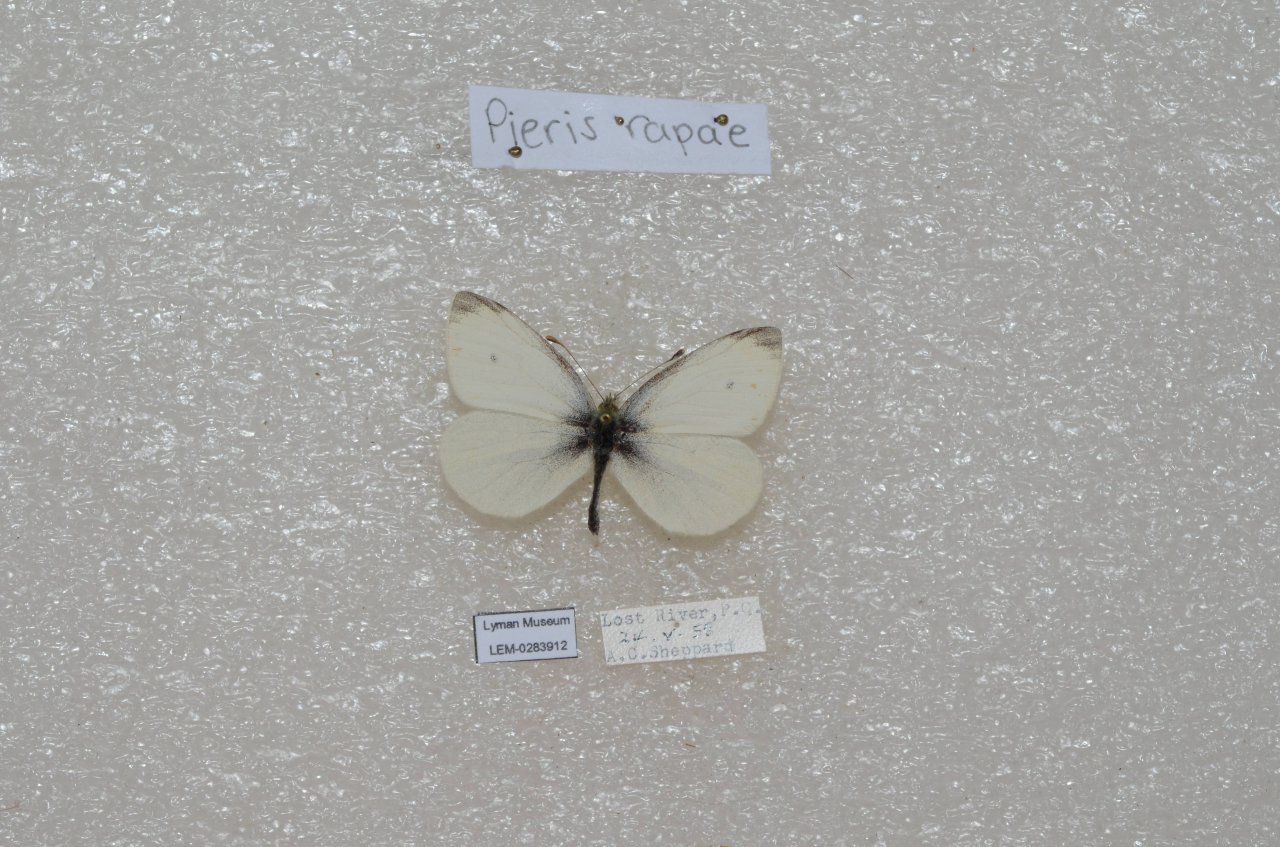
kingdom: Animalia
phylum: Arthropoda
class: Insecta
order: Lepidoptera
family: Pieridae
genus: Pieris
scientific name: Pieris
